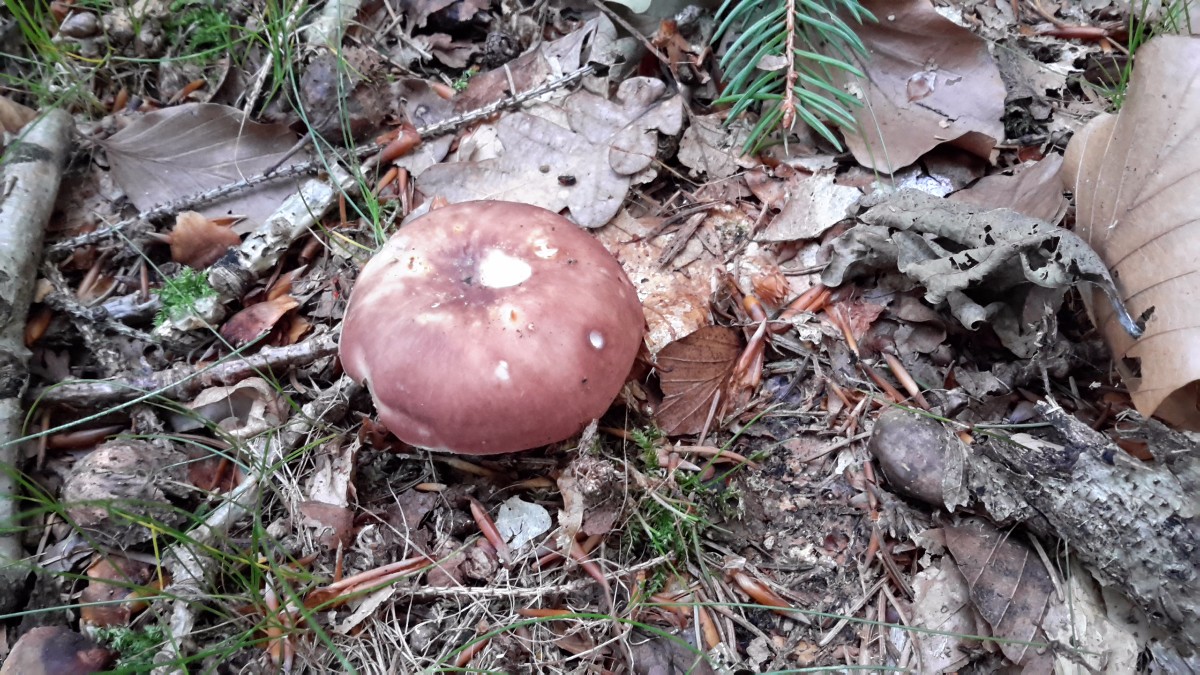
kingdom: Fungi
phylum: Basidiomycota
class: Agaricomycetes
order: Russulales
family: Russulaceae
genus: Russula
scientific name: Russula vesca
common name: spiselig skørhat
